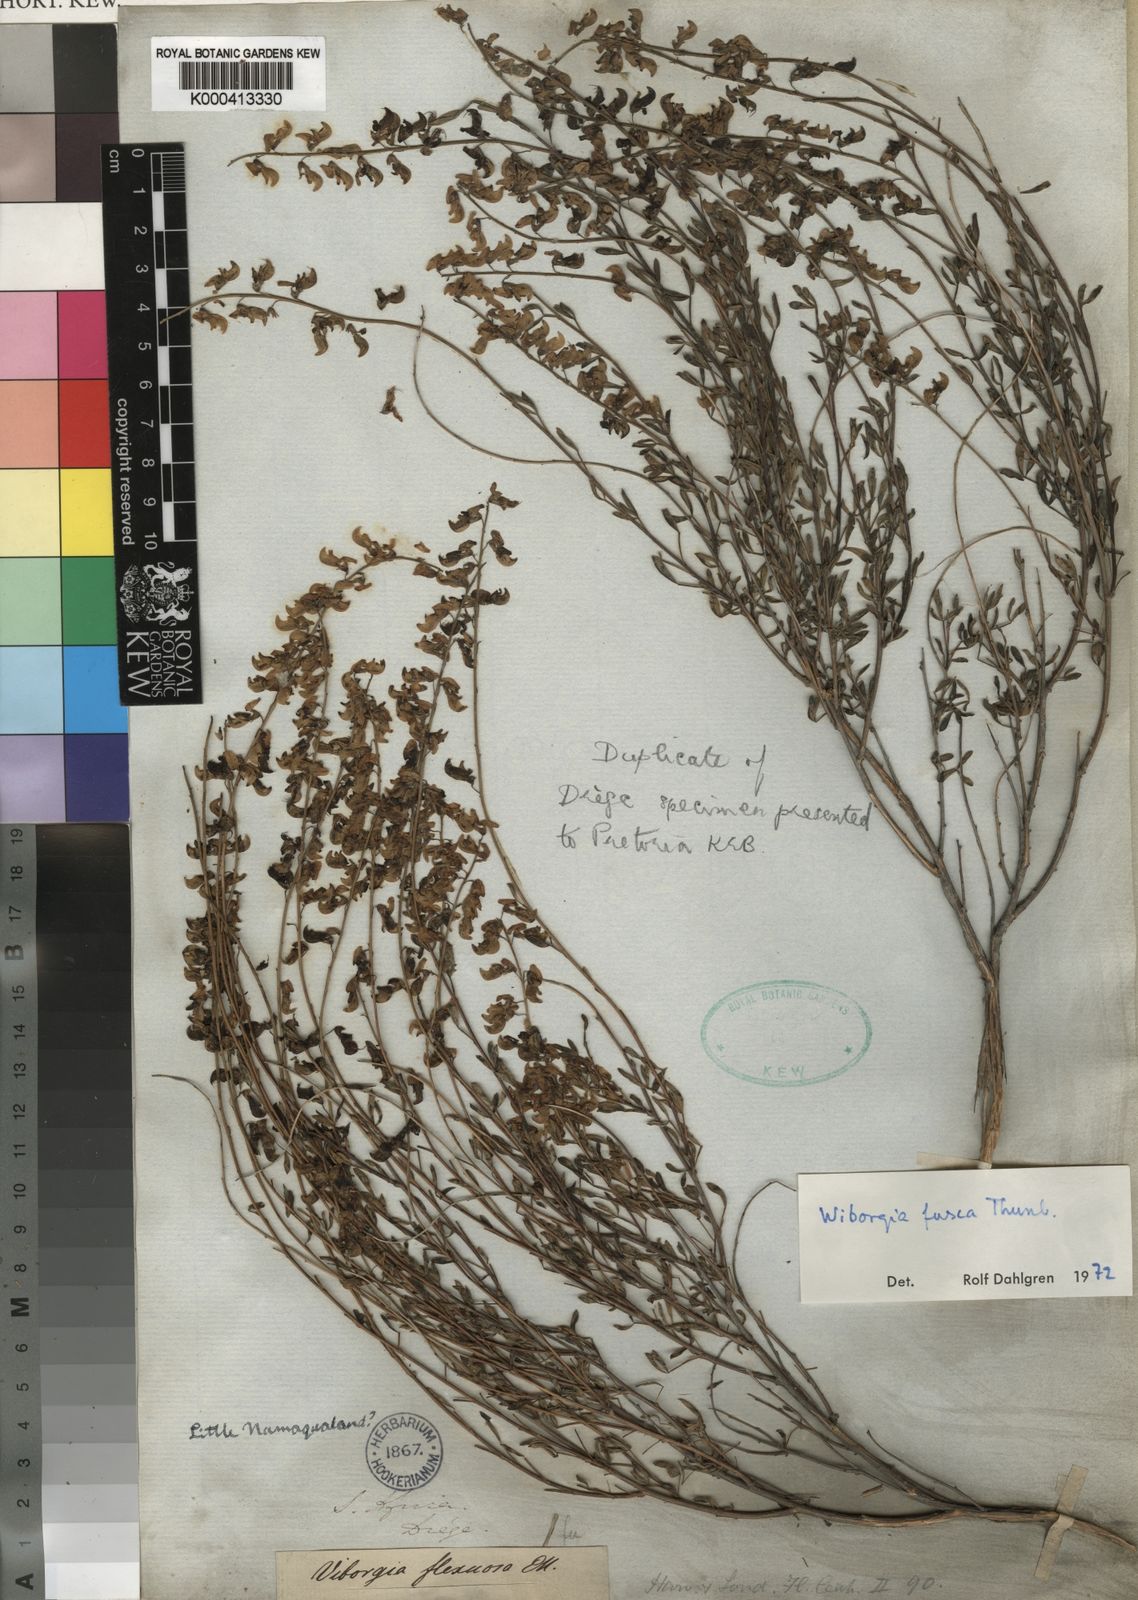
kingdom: Plantae
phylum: Tracheophyta
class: Magnoliopsida
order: Fabales
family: Fabaceae
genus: Wiborgia
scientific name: Wiborgia fusca
